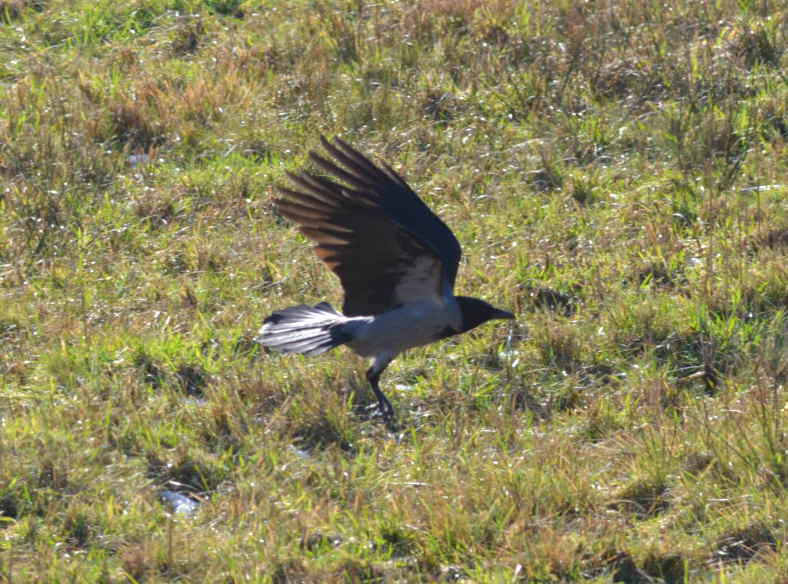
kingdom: Animalia
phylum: Chordata
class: Aves
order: Passeriformes
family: Corvidae
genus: Corvus
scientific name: Corvus cornix
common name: Hooded crow
